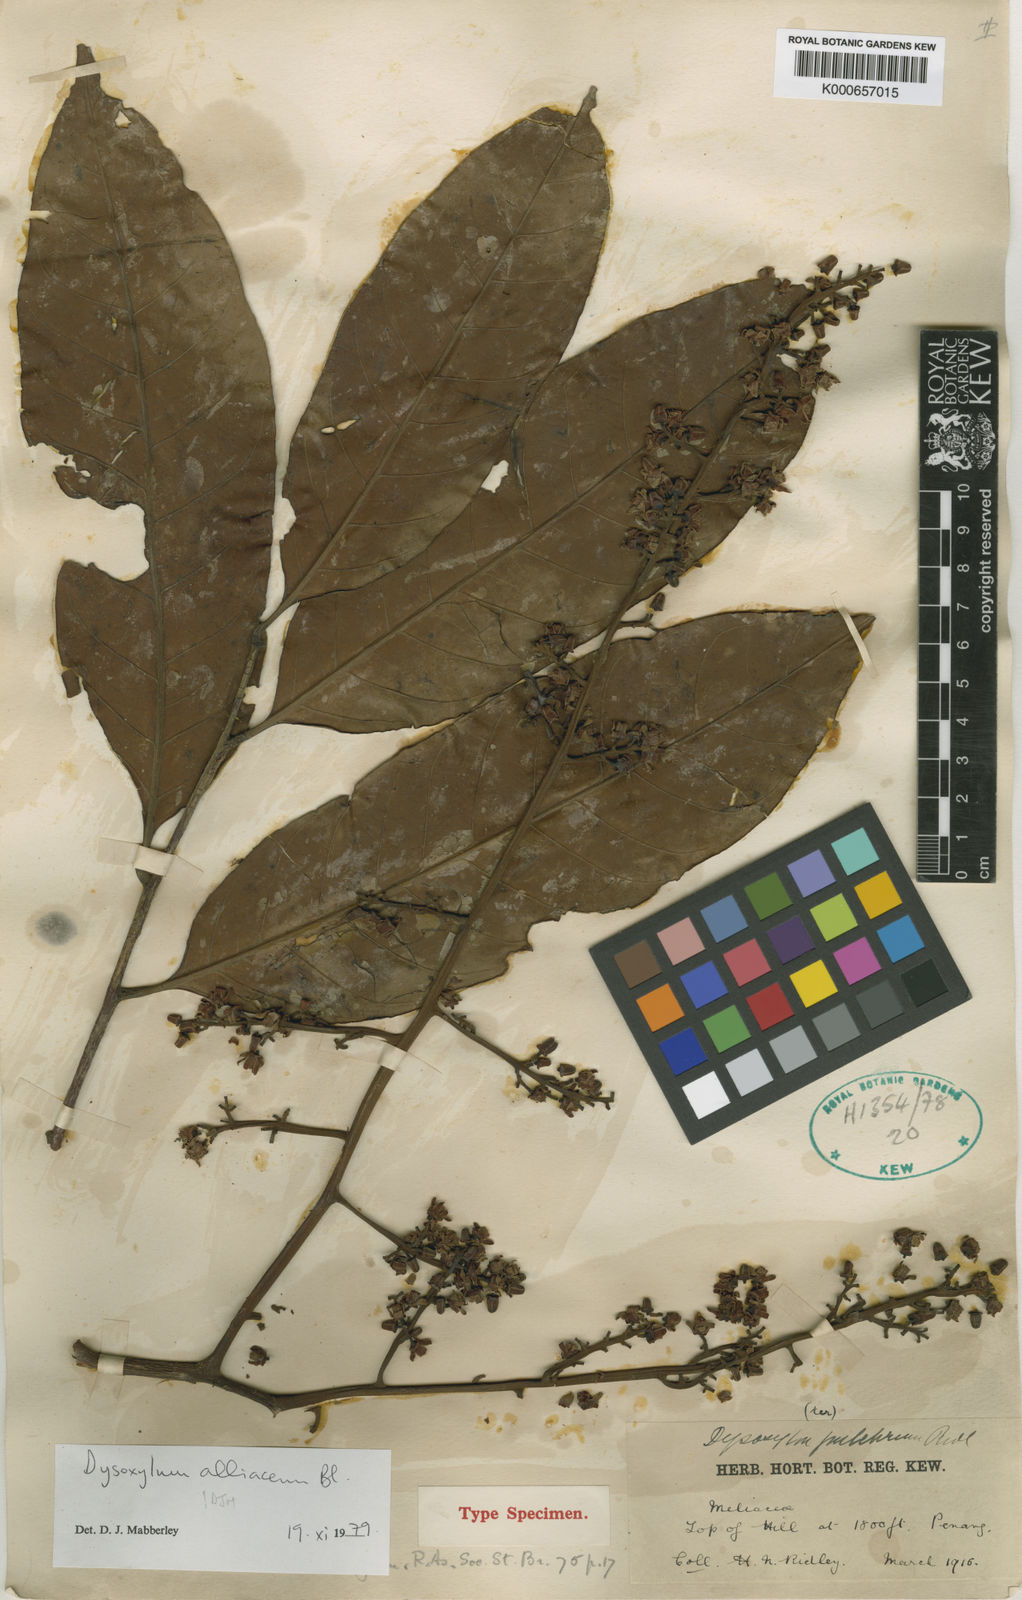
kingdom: Plantae
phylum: Tracheophyta
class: Magnoliopsida
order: Sapindales
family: Meliaceae
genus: Prasoxylon
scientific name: Prasoxylon alliaceum
